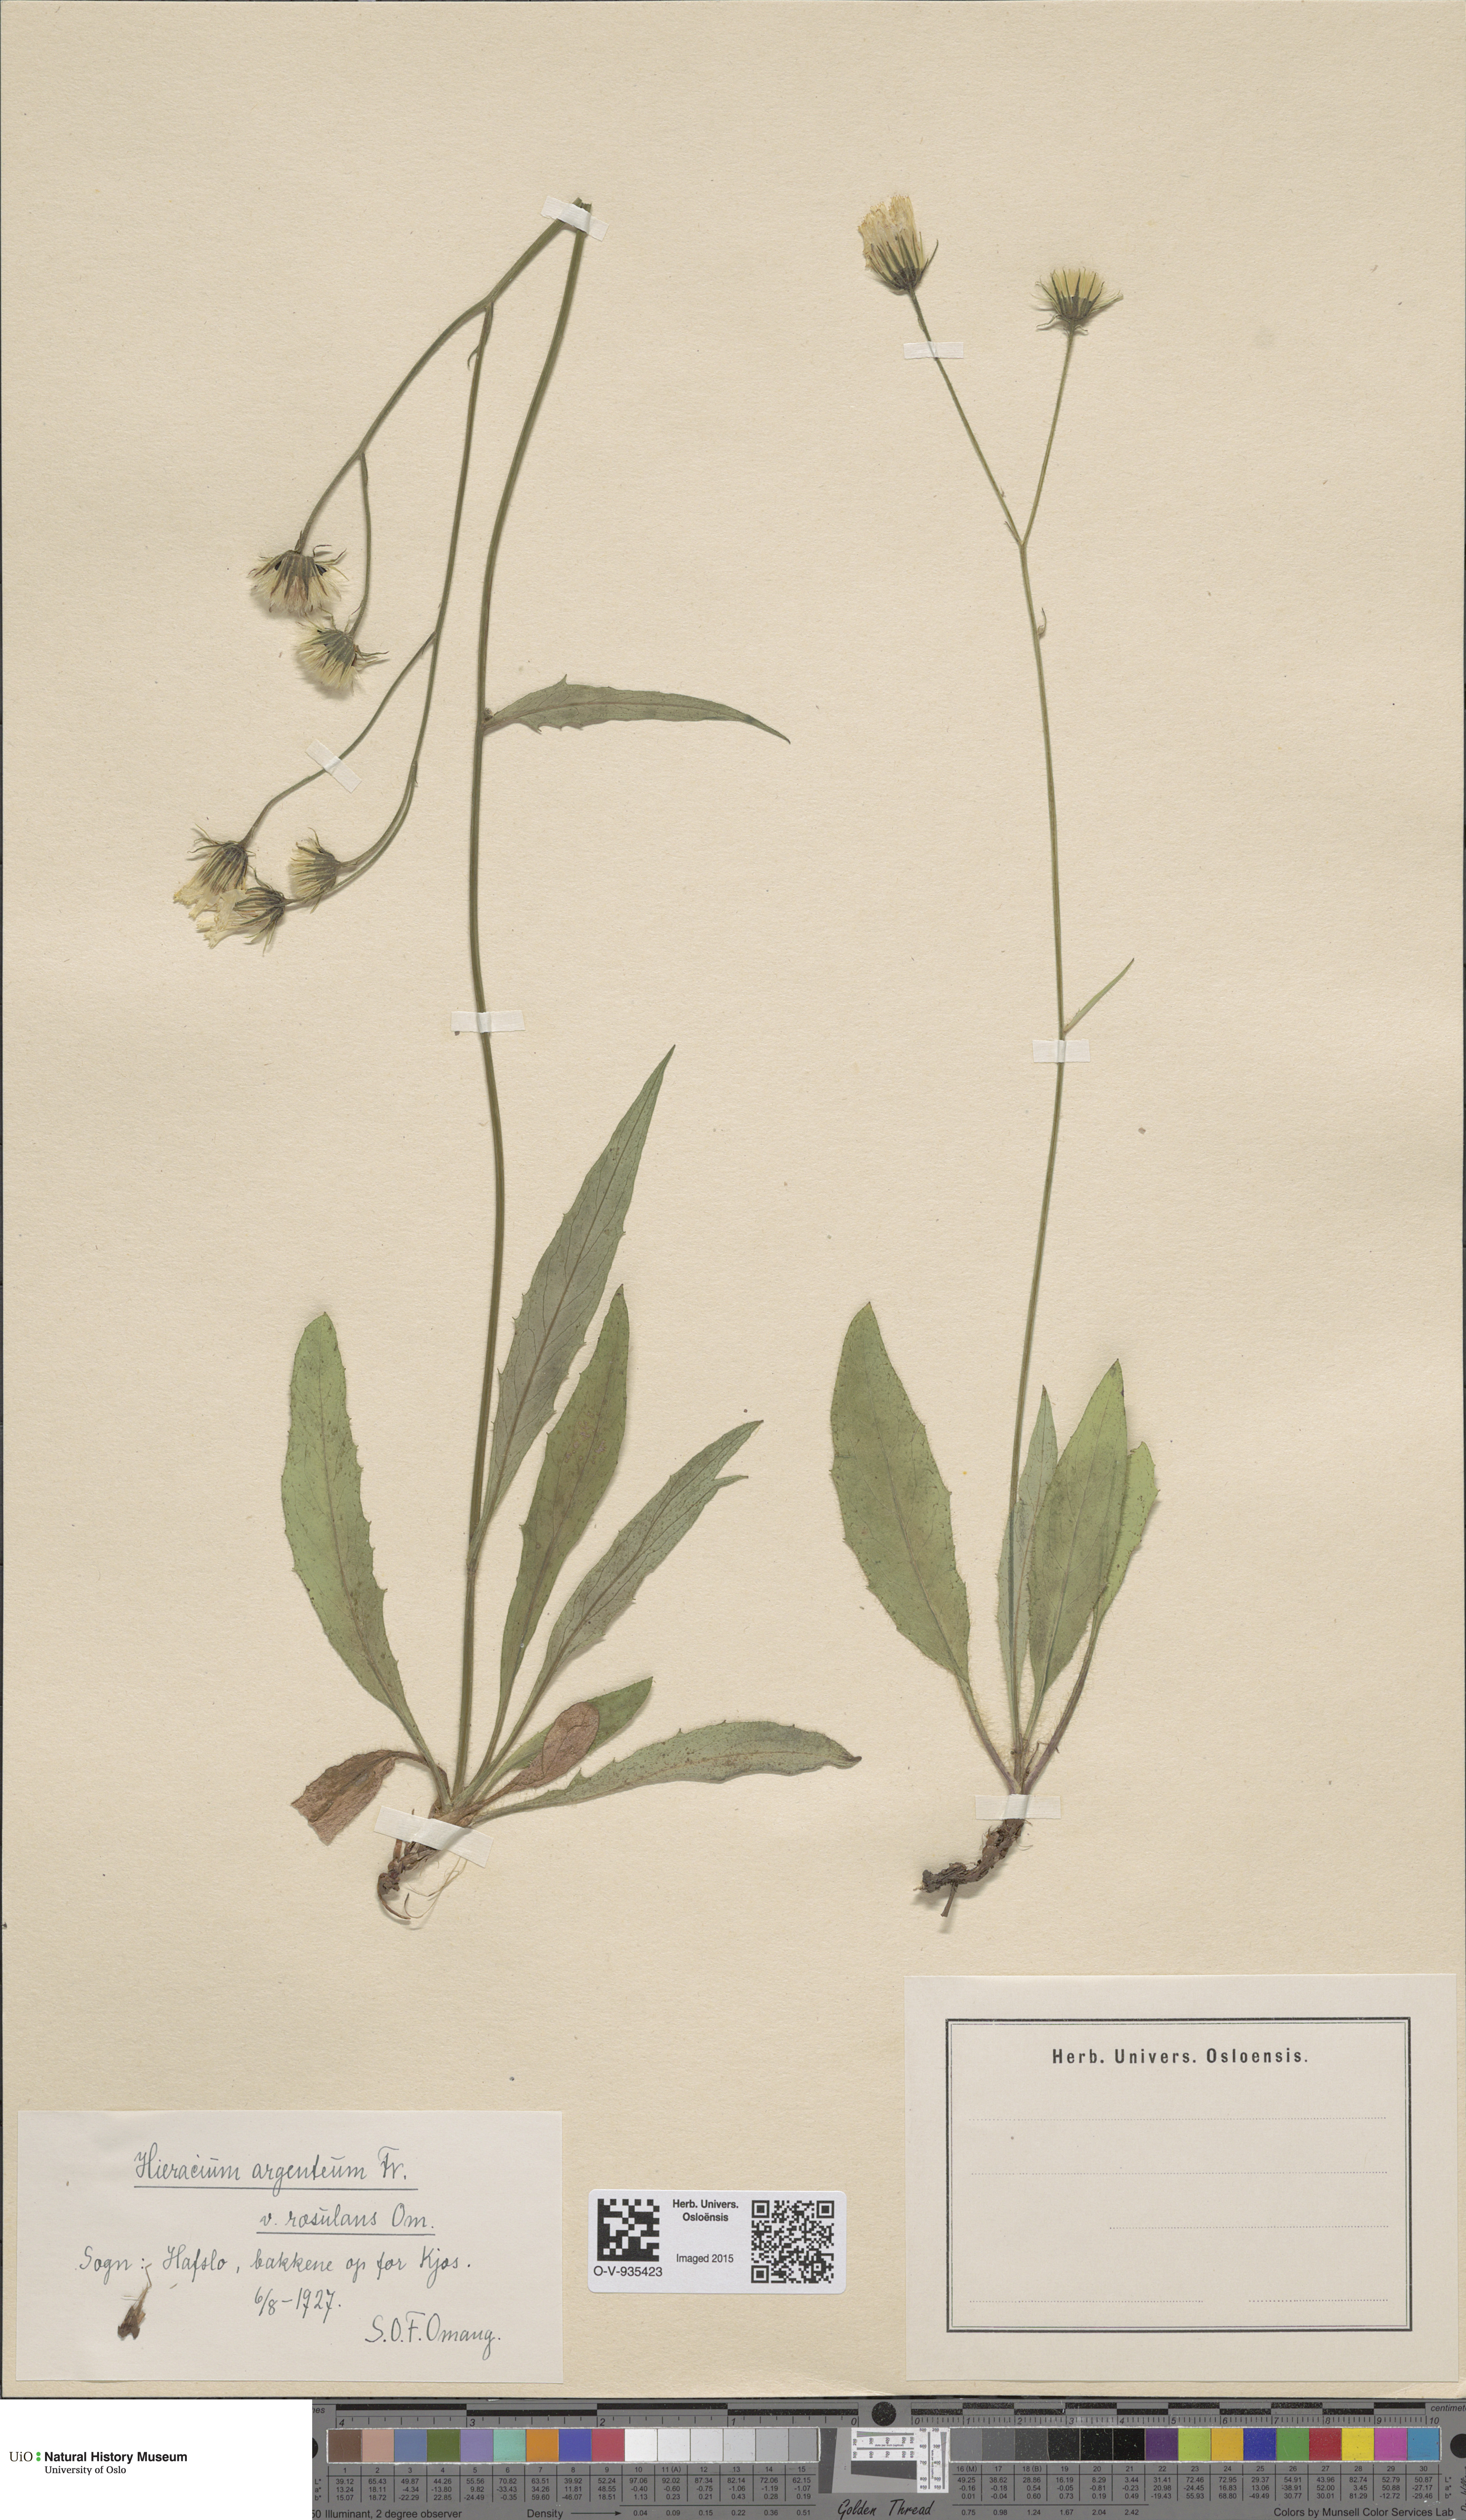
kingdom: Plantae
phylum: Tracheophyta
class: Magnoliopsida
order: Asterales
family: Asteraceae
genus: Hieracium
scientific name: Hieracium argenteum
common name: Silver hawkweed
